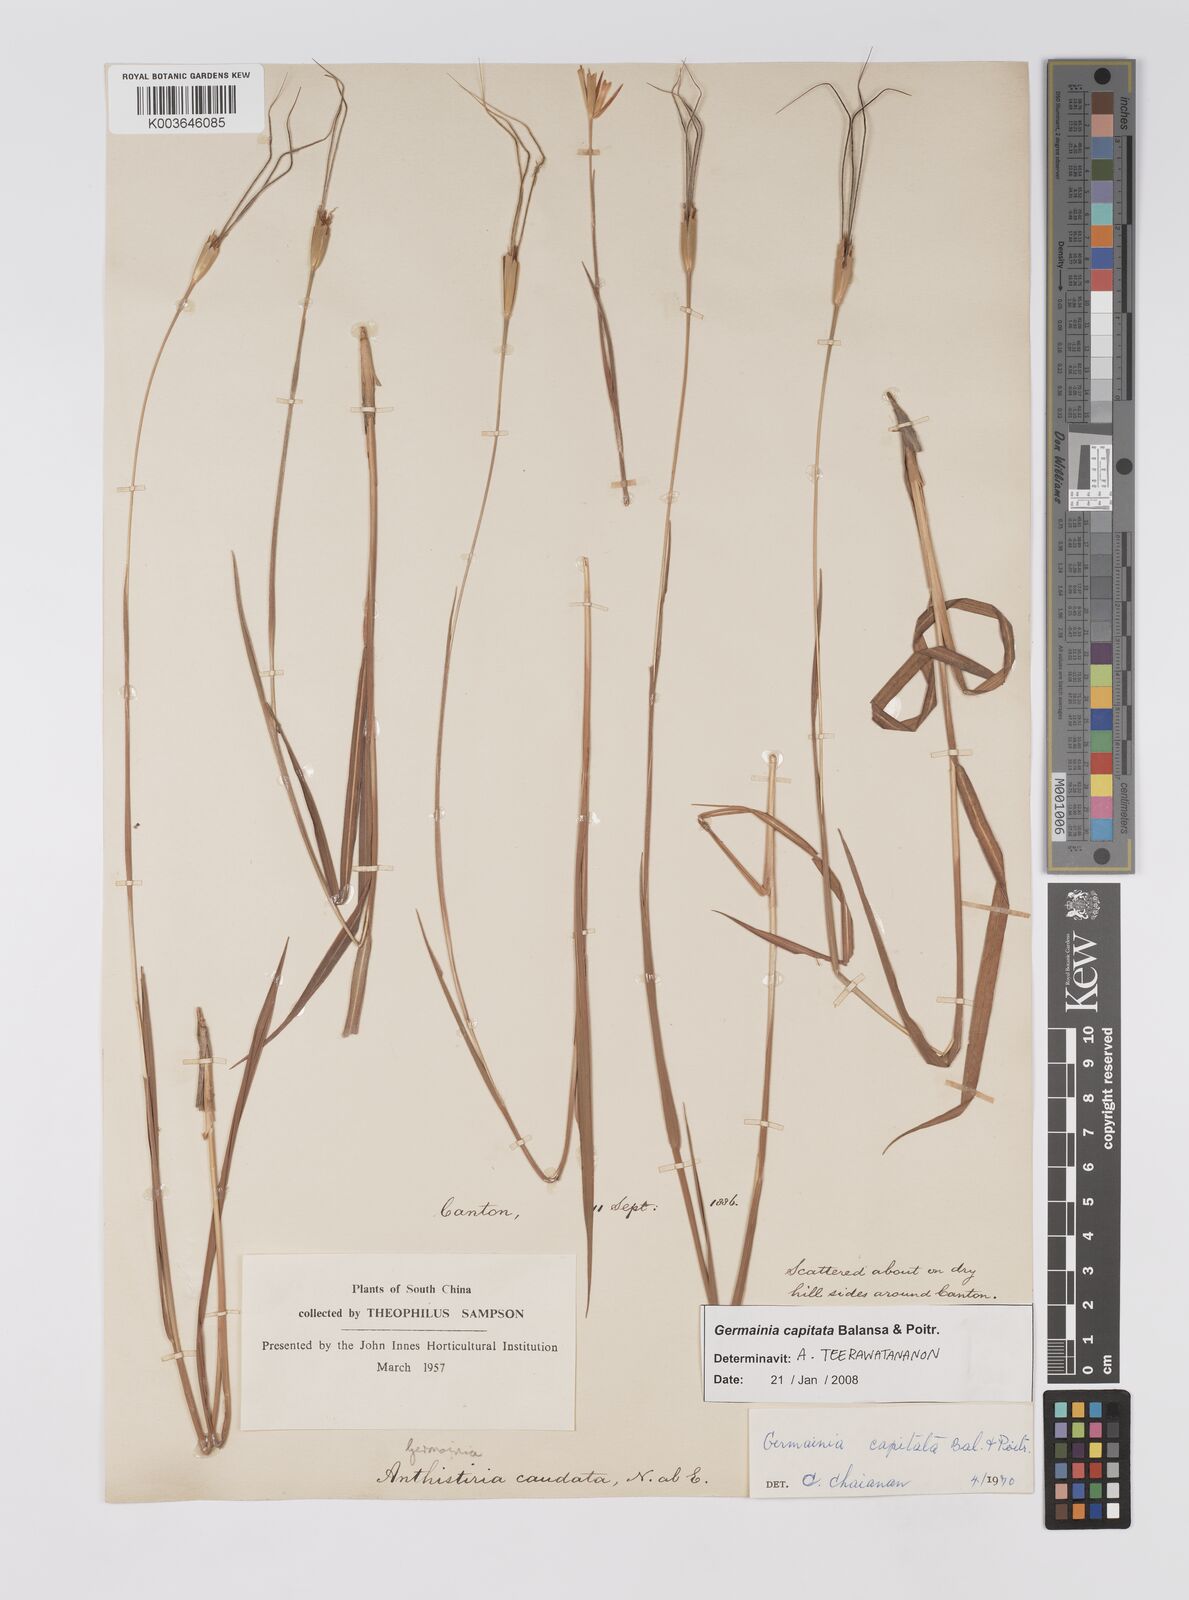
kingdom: Plantae
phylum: Tracheophyta
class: Liliopsida
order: Poales
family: Poaceae
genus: Germainia
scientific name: Germainia capitata
